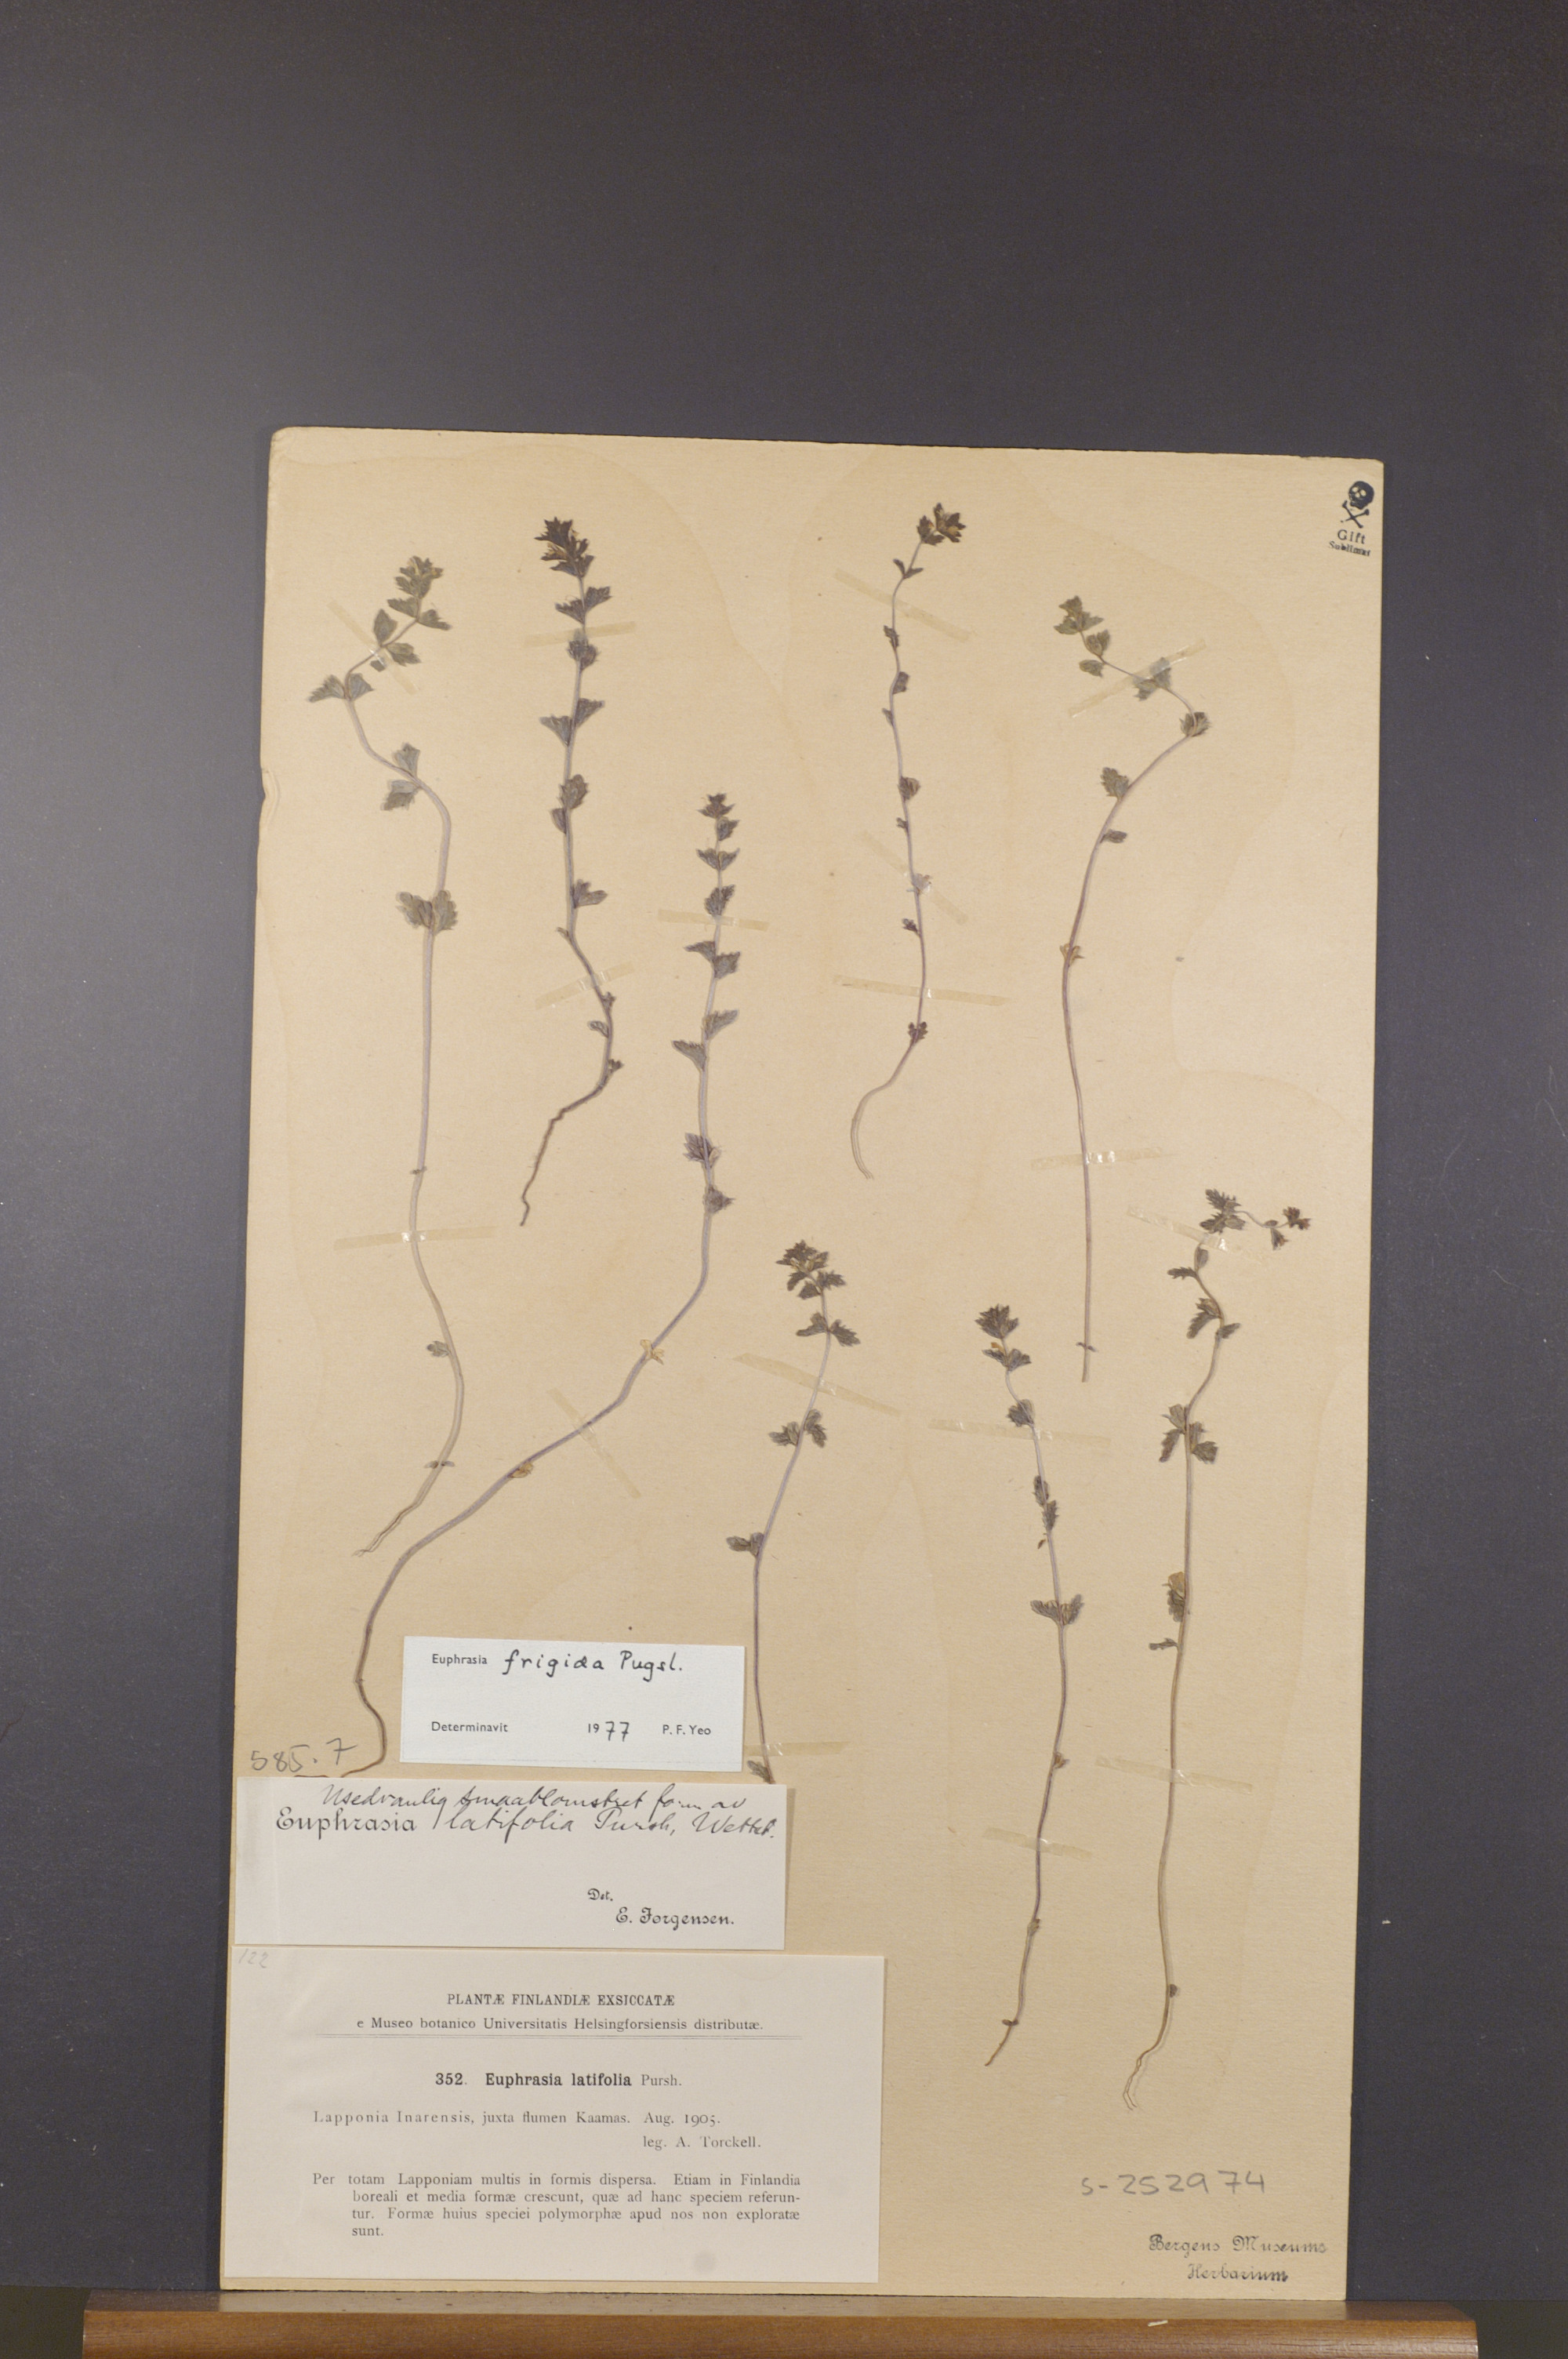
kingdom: Plantae
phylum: Tracheophyta
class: Magnoliopsida
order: Lamiales
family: Orobanchaceae
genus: Euphrasia
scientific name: Euphrasia frigida
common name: An eyebright
